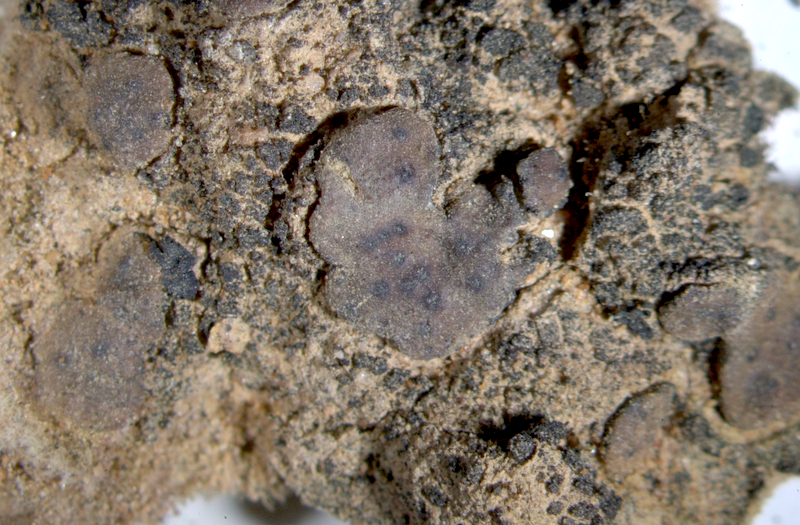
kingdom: Fungi
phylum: Ascomycota
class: Eurotiomycetes
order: Verrucariales
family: Verrucariaceae
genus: Catapyrenium
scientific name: Catapyrenium tenellum
